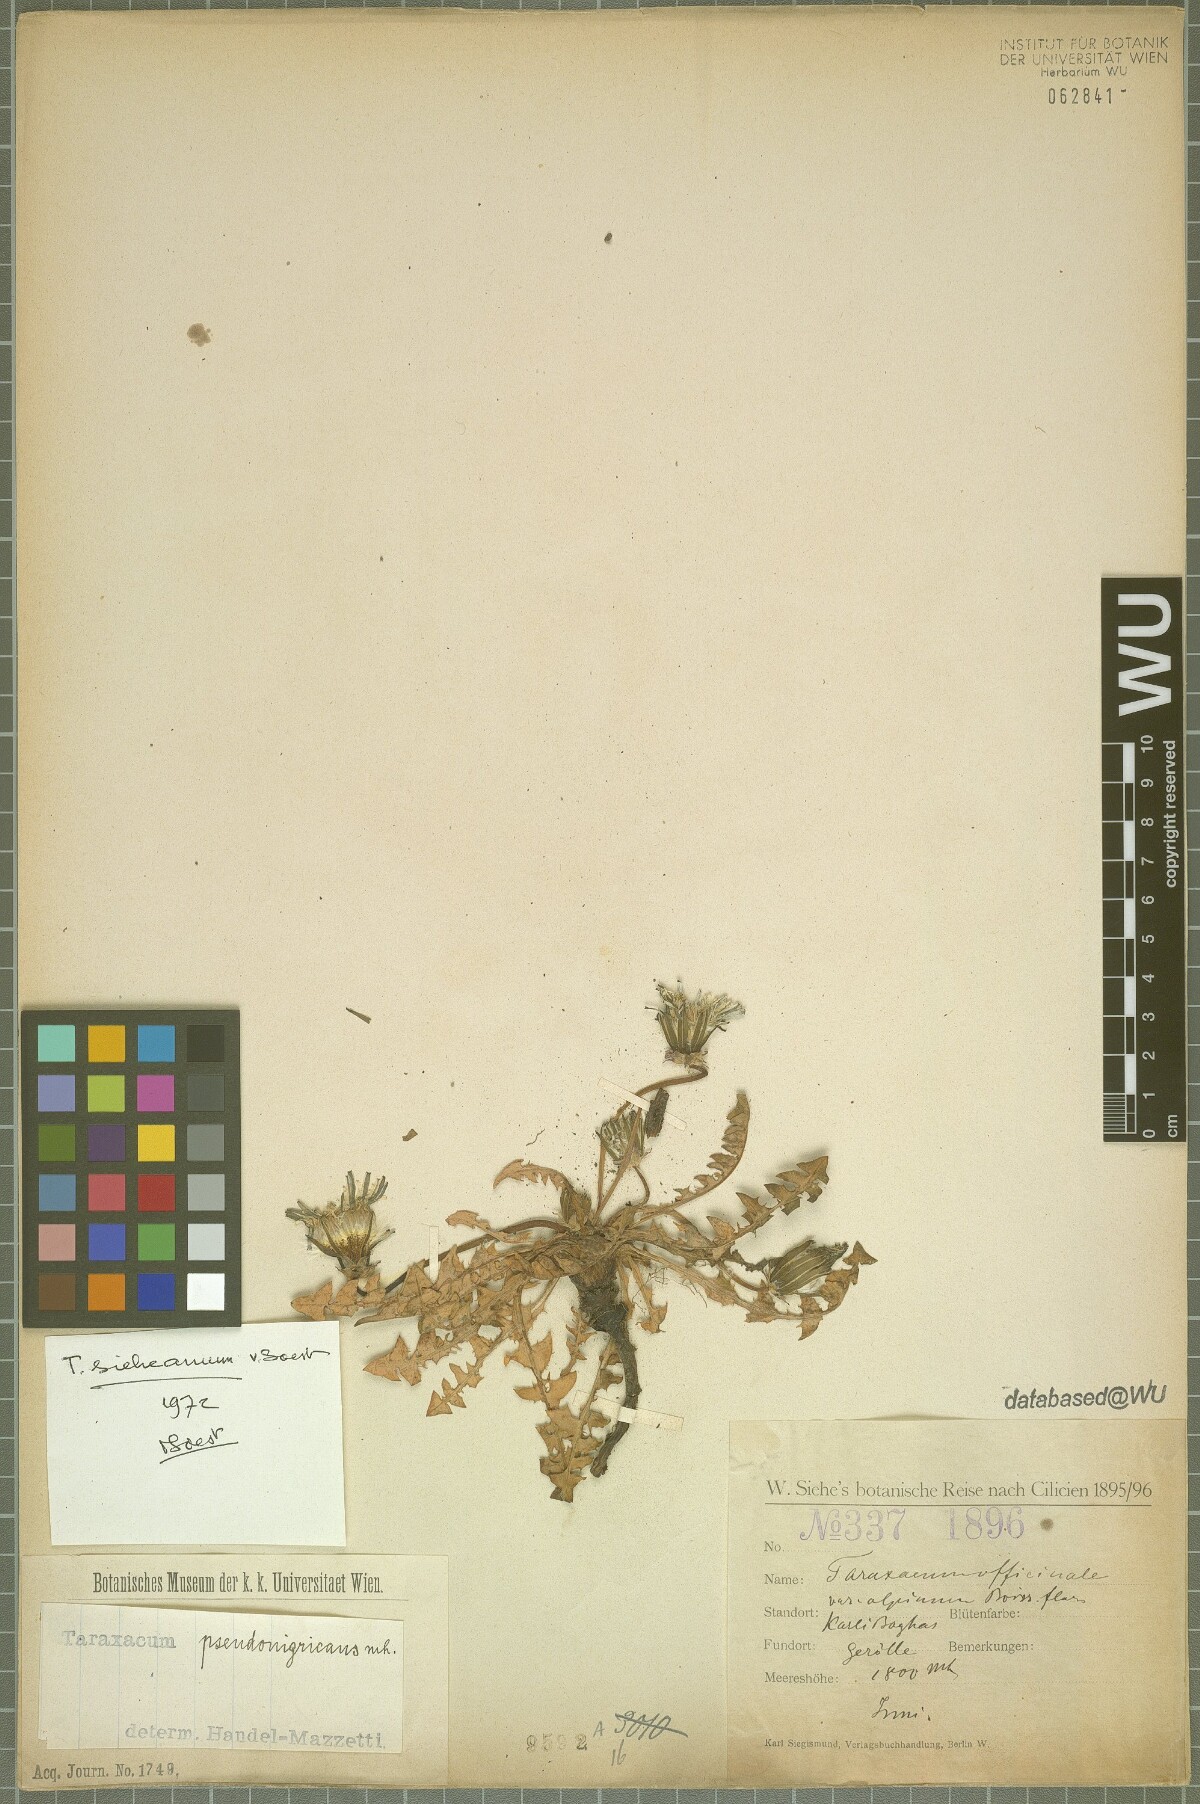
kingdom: Plantae
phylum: Tracheophyta
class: Magnoliopsida
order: Asterales
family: Asteraceae
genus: Taraxacum
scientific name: Taraxacum sieheanum
